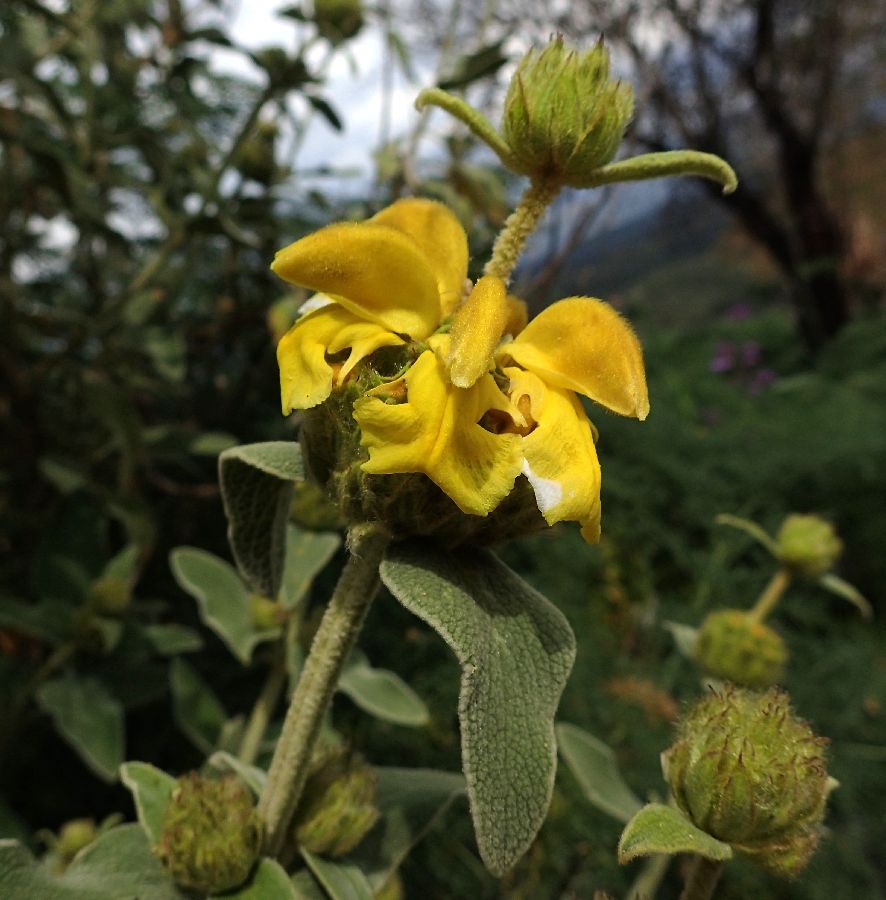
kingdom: Plantae
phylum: Tracheophyta
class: Magnoliopsida
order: Lamiales
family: Lamiaceae
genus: Phlomis
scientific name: Phlomis fruticosa
